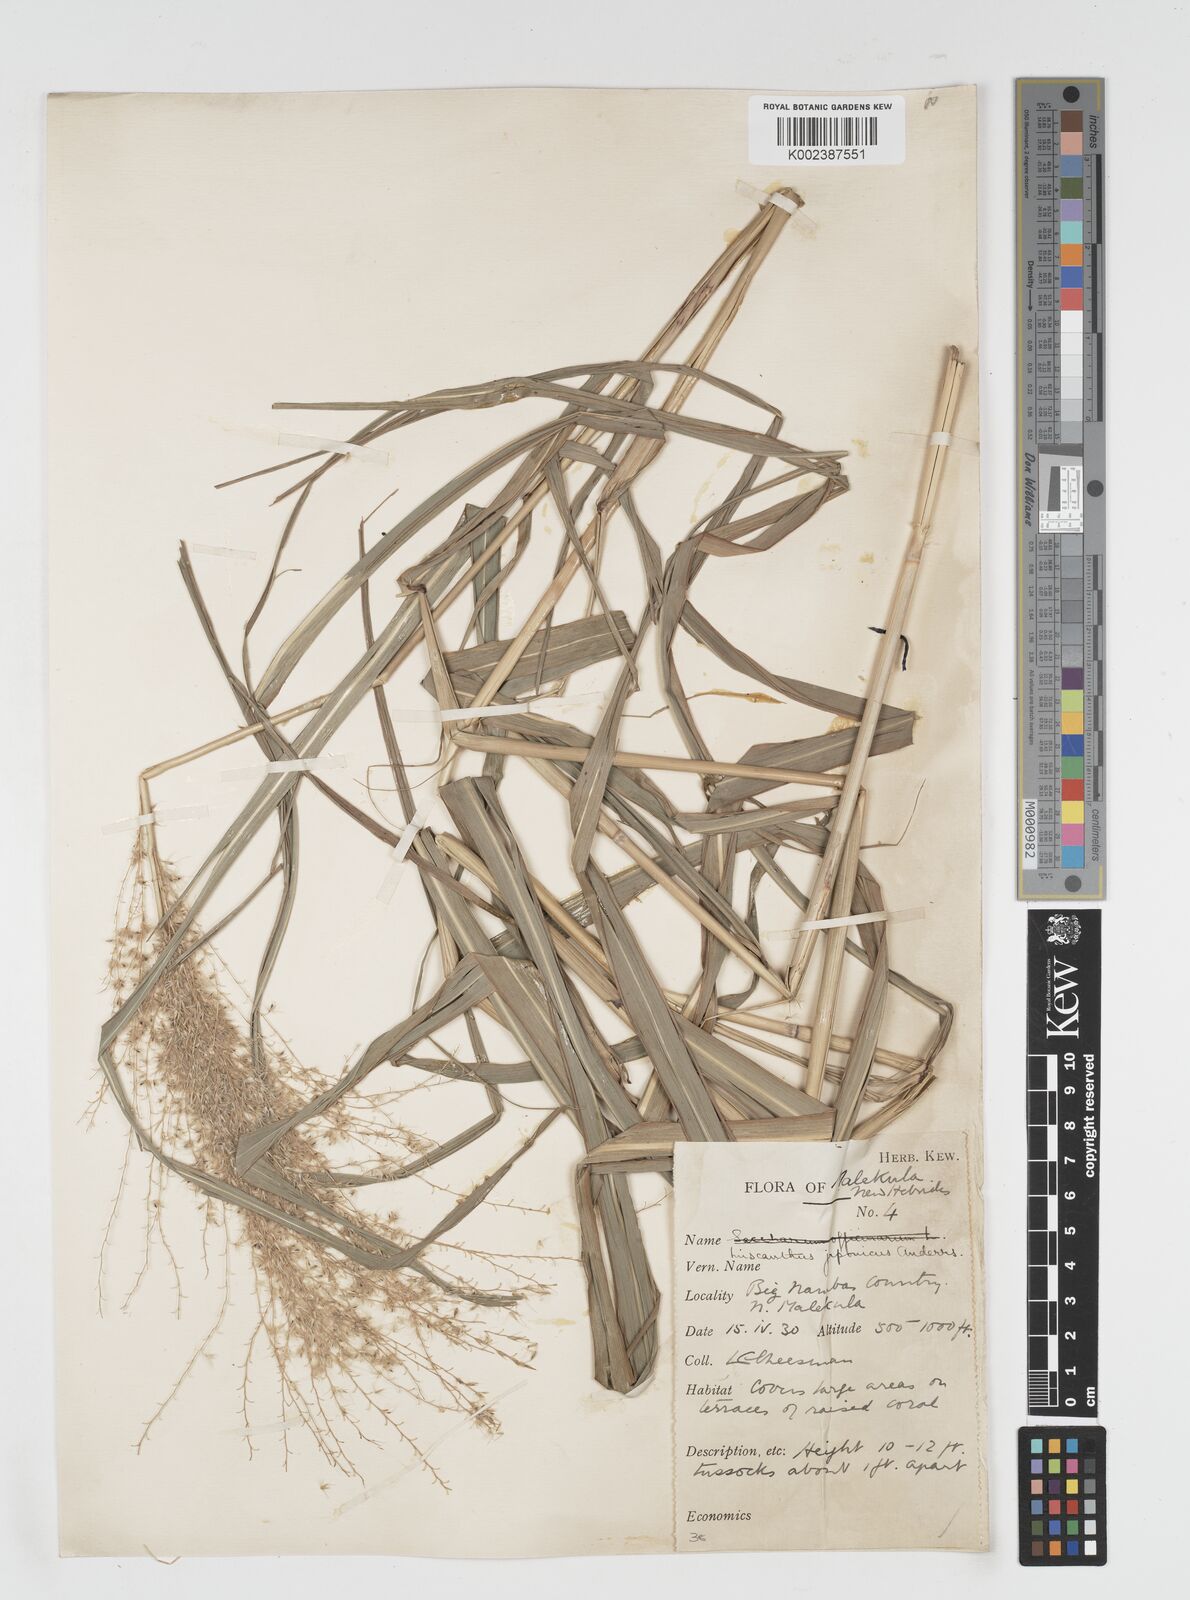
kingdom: Plantae
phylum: Tracheophyta
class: Liliopsida
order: Poales
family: Poaceae
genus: Miscanthus
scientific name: Miscanthus floridulus
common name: Pacific island silvergrass
